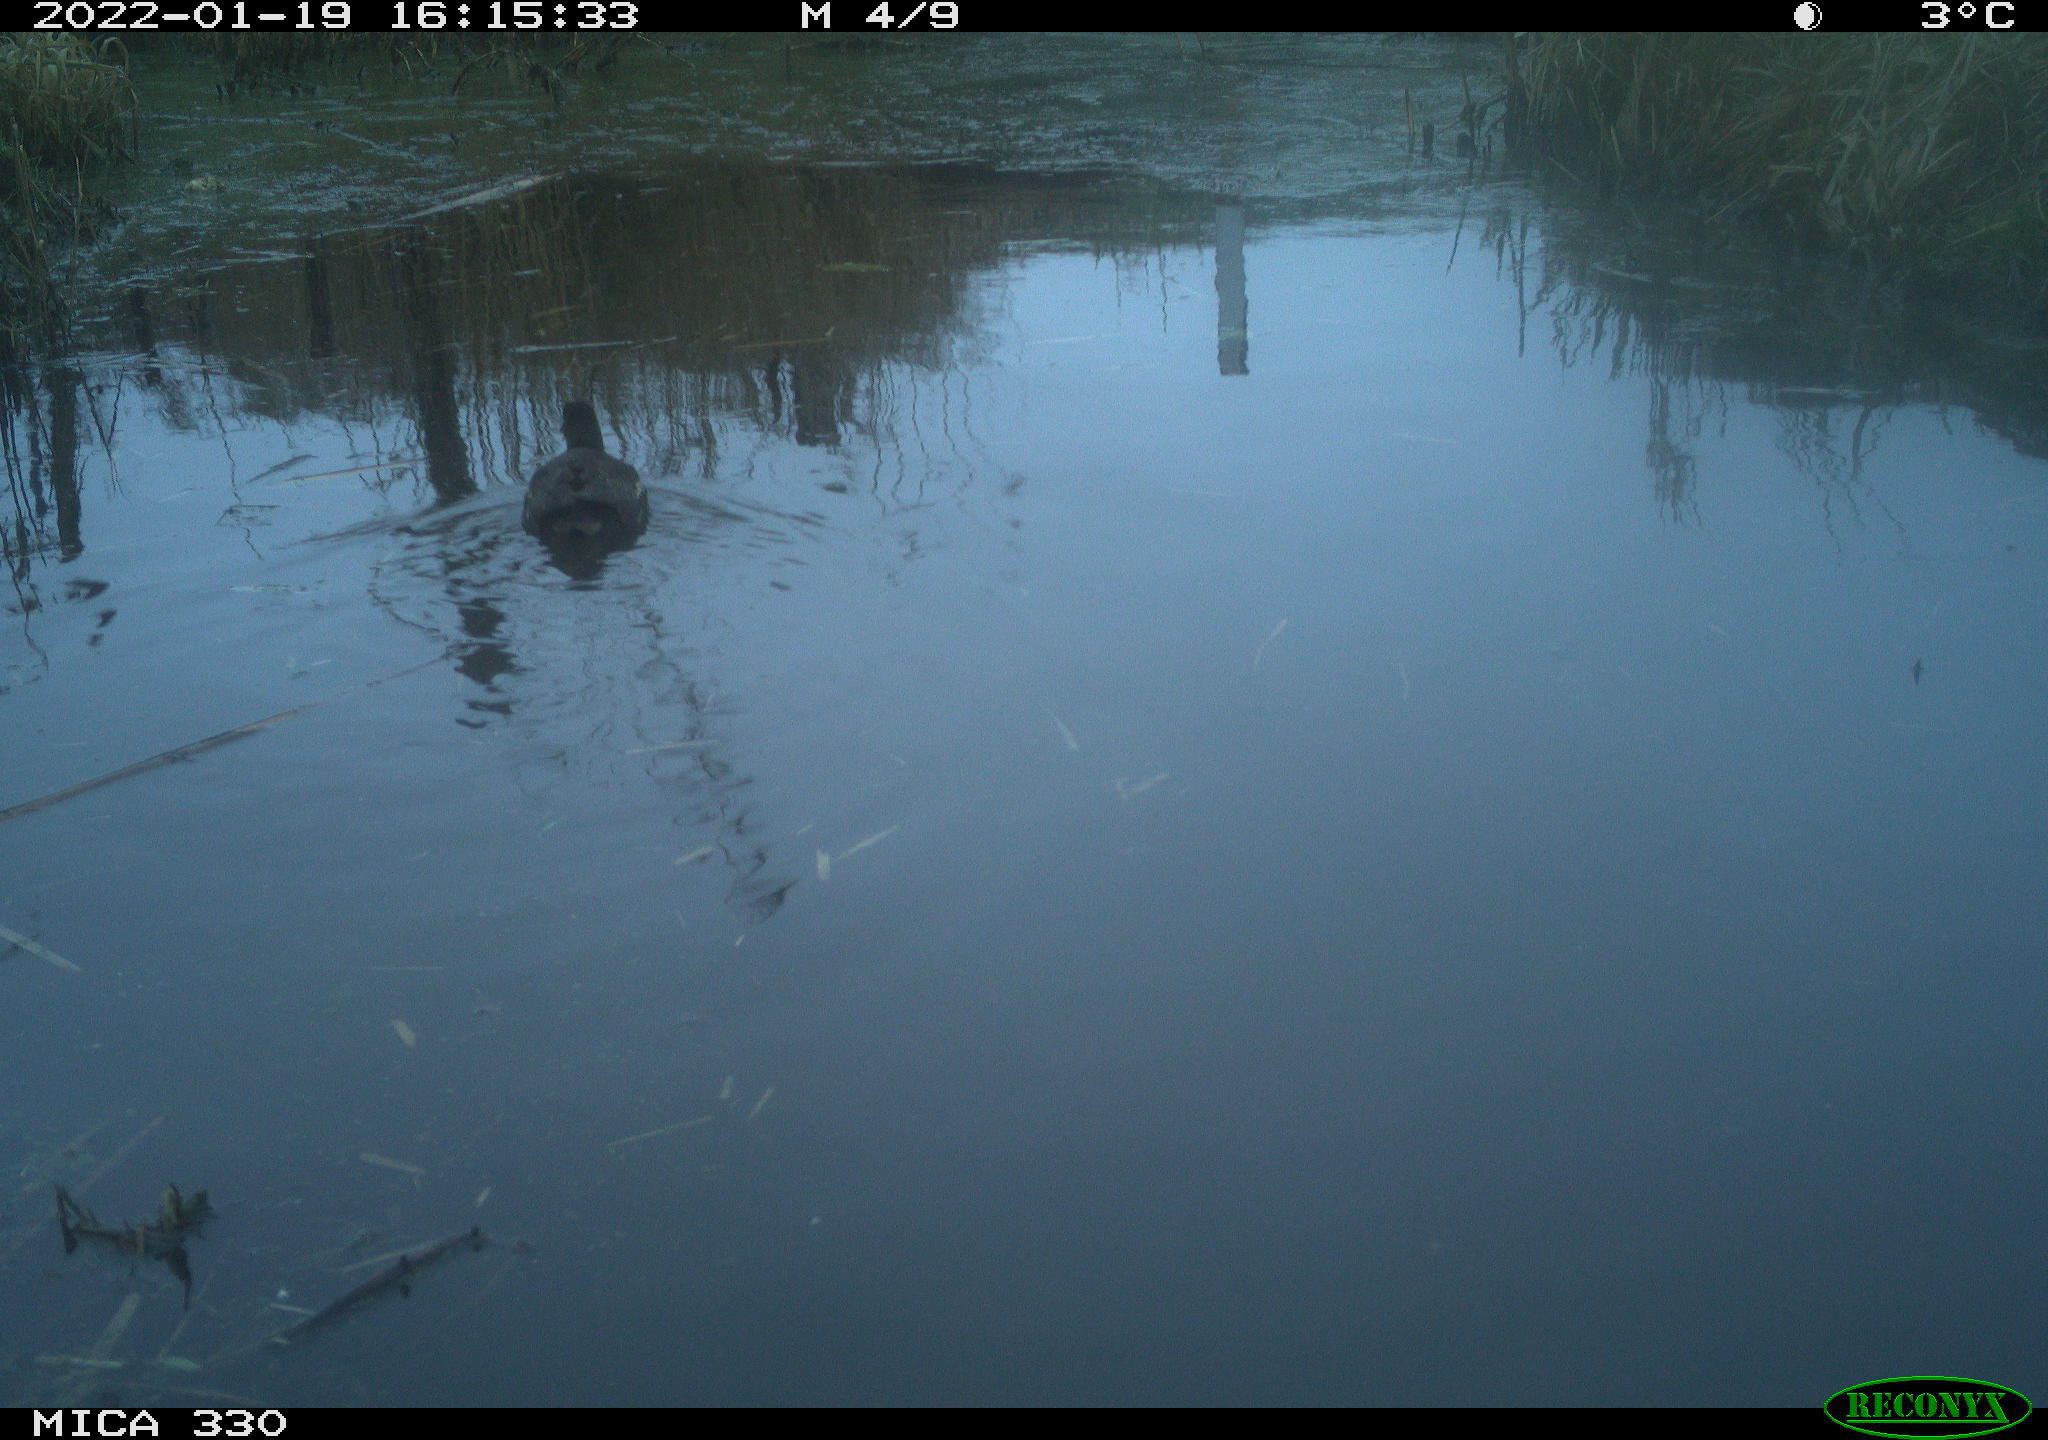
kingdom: Animalia
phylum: Chordata
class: Aves
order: Gruiformes
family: Rallidae
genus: Gallinula
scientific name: Gallinula chloropus
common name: Common moorhen
